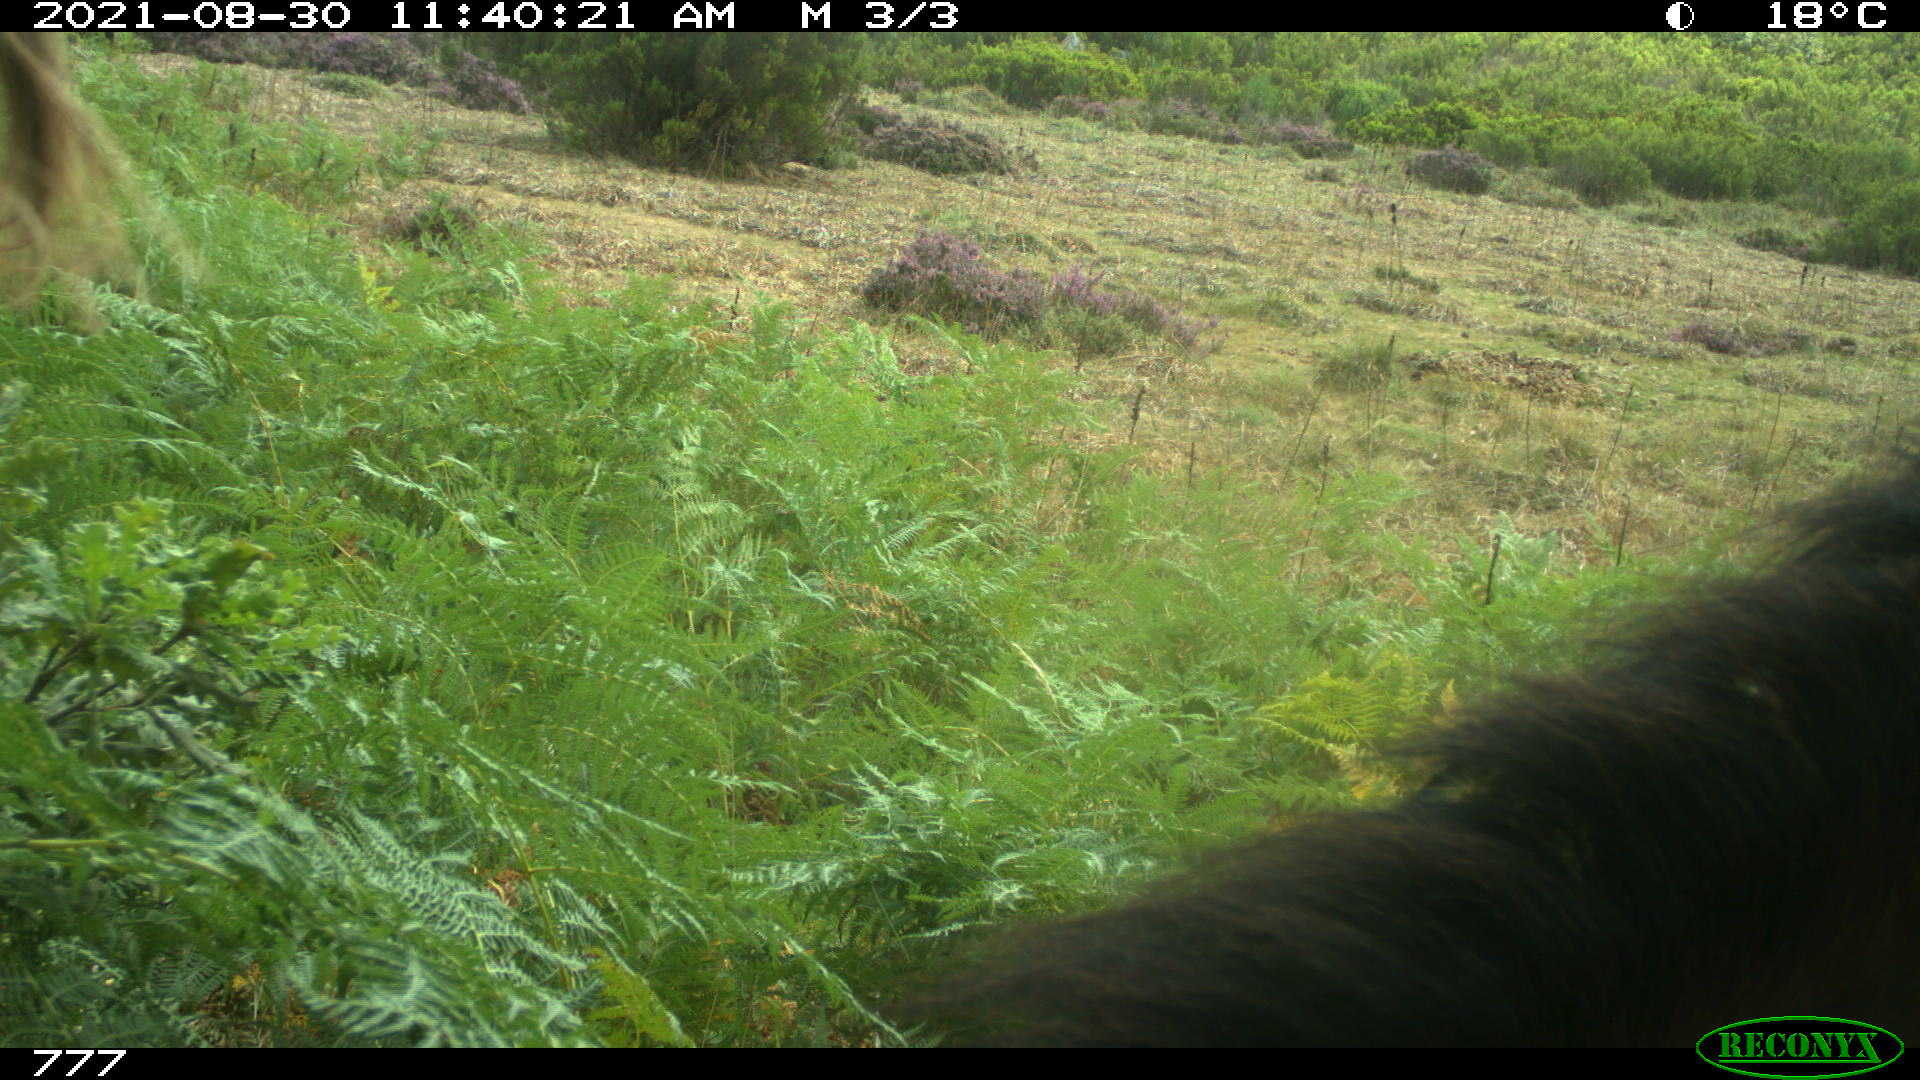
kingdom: Animalia
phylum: Chordata
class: Mammalia
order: Perissodactyla
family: Equidae
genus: Equus
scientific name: Equus caballus
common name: Horse
